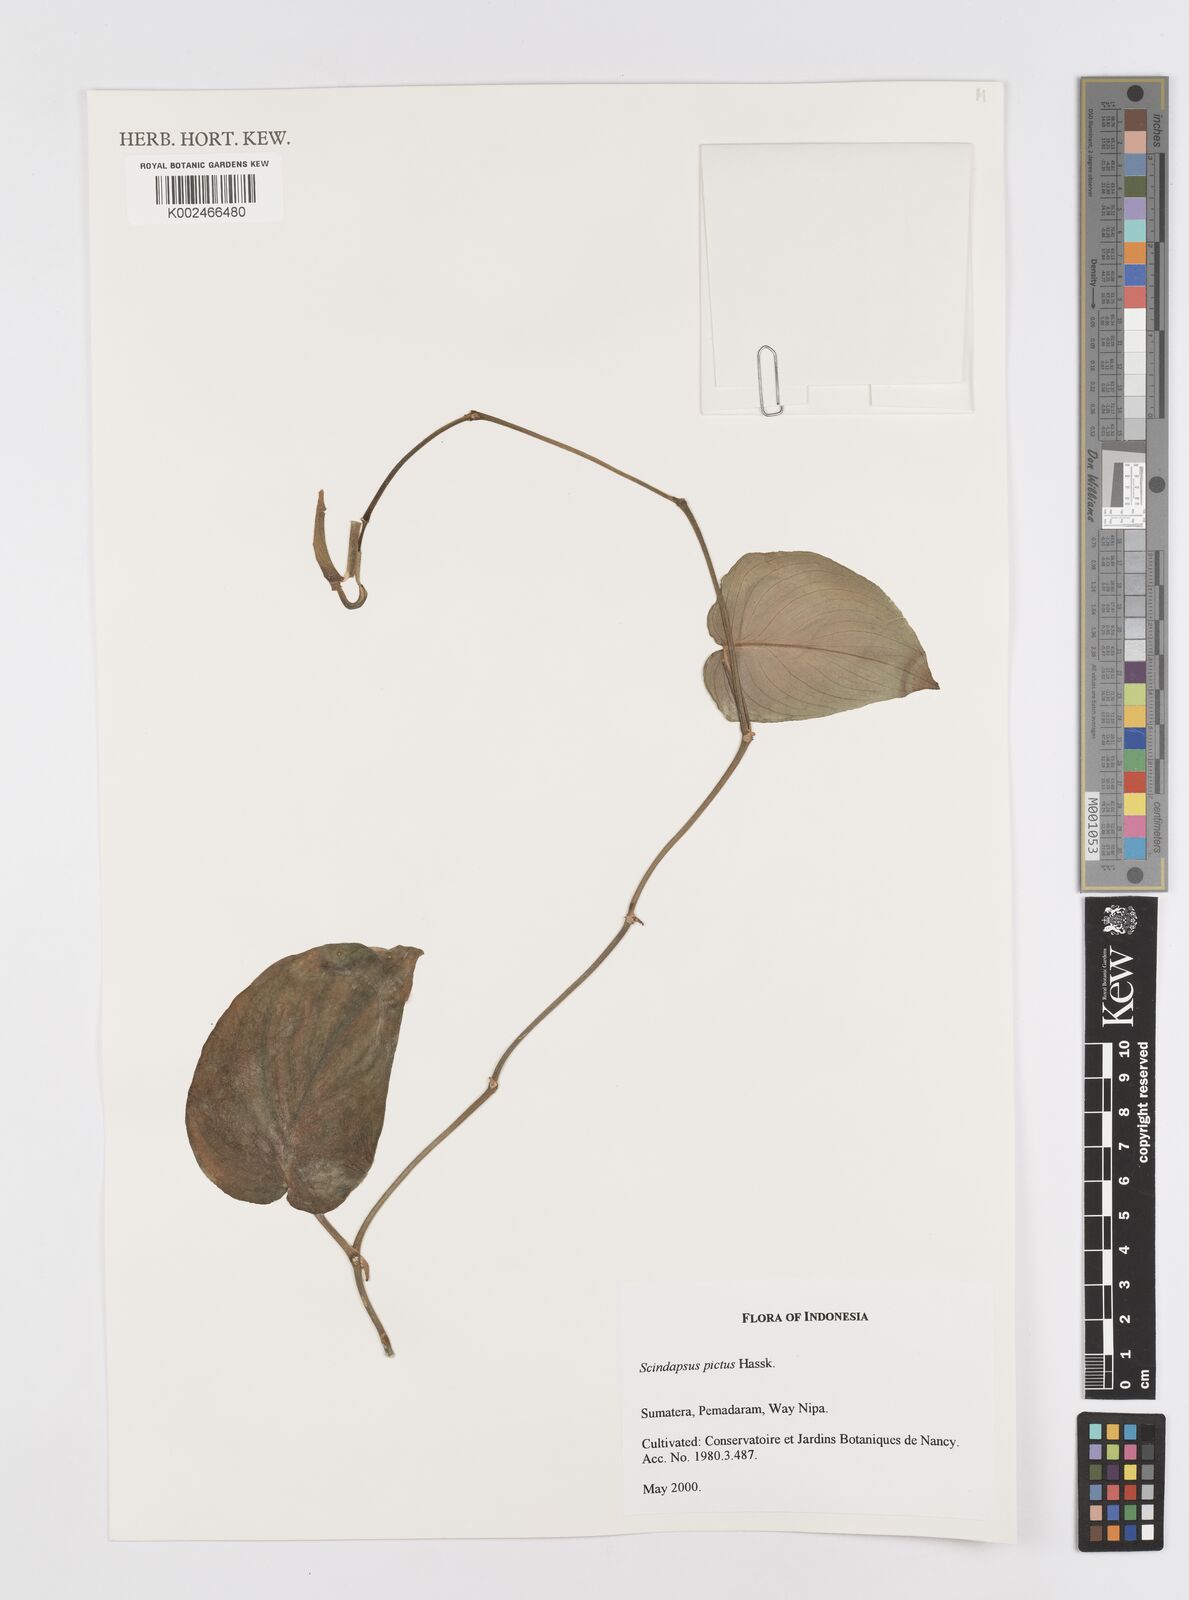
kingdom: Plantae
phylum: Tracheophyta
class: Liliopsida
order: Alismatales
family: Araceae
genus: Scindapsus
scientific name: Scindapsus pictus
